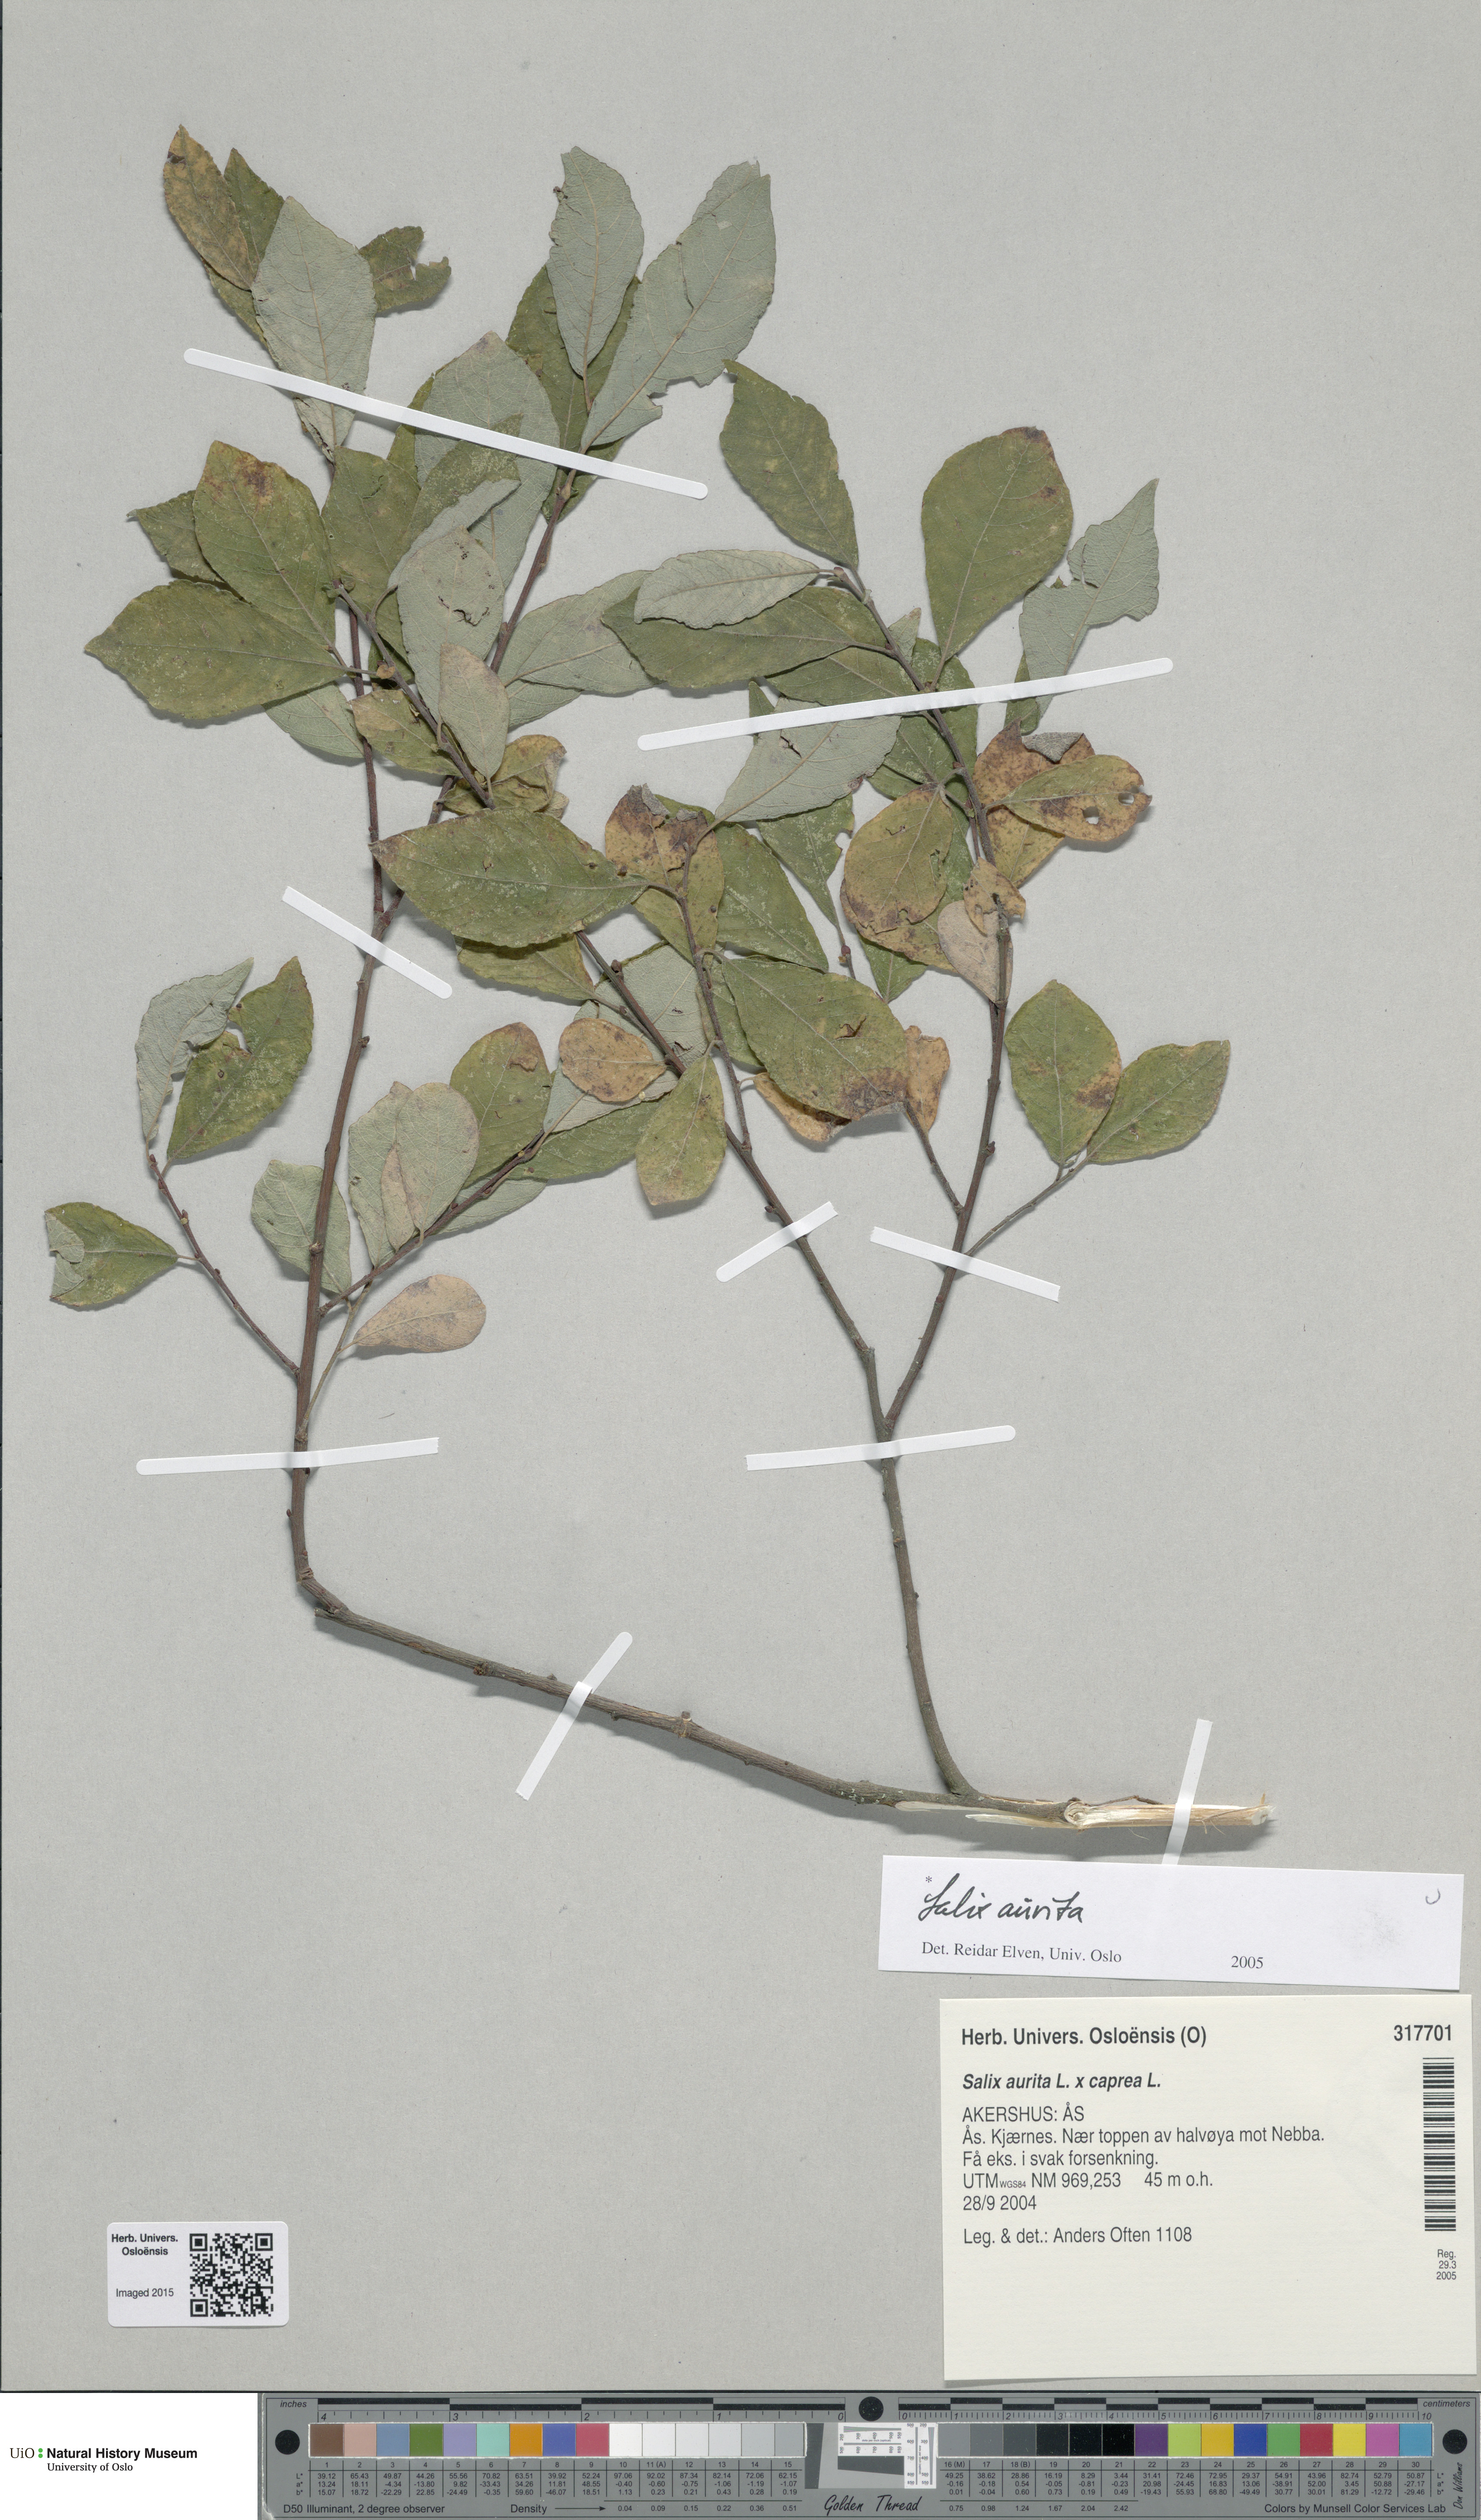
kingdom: Plantae
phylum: Tracheophyta
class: Magnoliopsida
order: Malpighiales
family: Salicaceae
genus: Salix
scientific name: Salix aurita
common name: Eared willow
